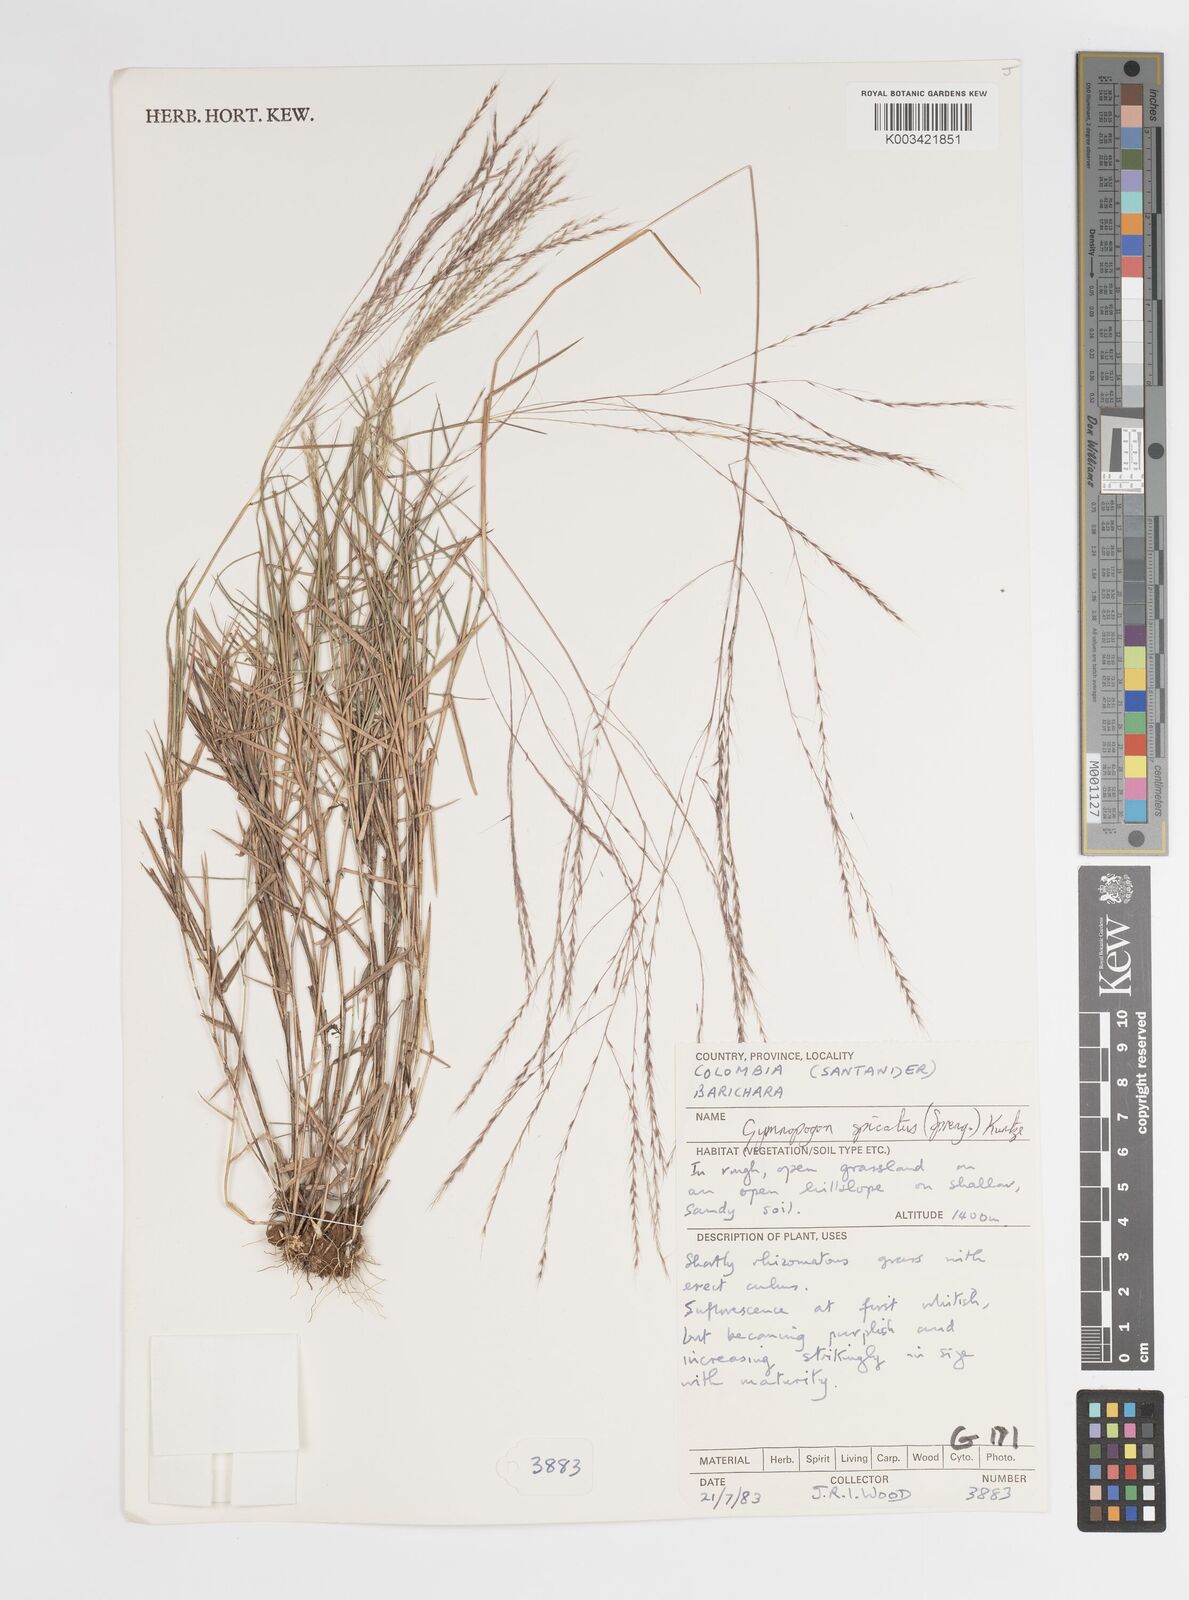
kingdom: Plantae
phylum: Tracheophyta
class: Liliopsida
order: Poales
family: Poaceae
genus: Gymnopogon
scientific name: Gymnopogon spicatus
